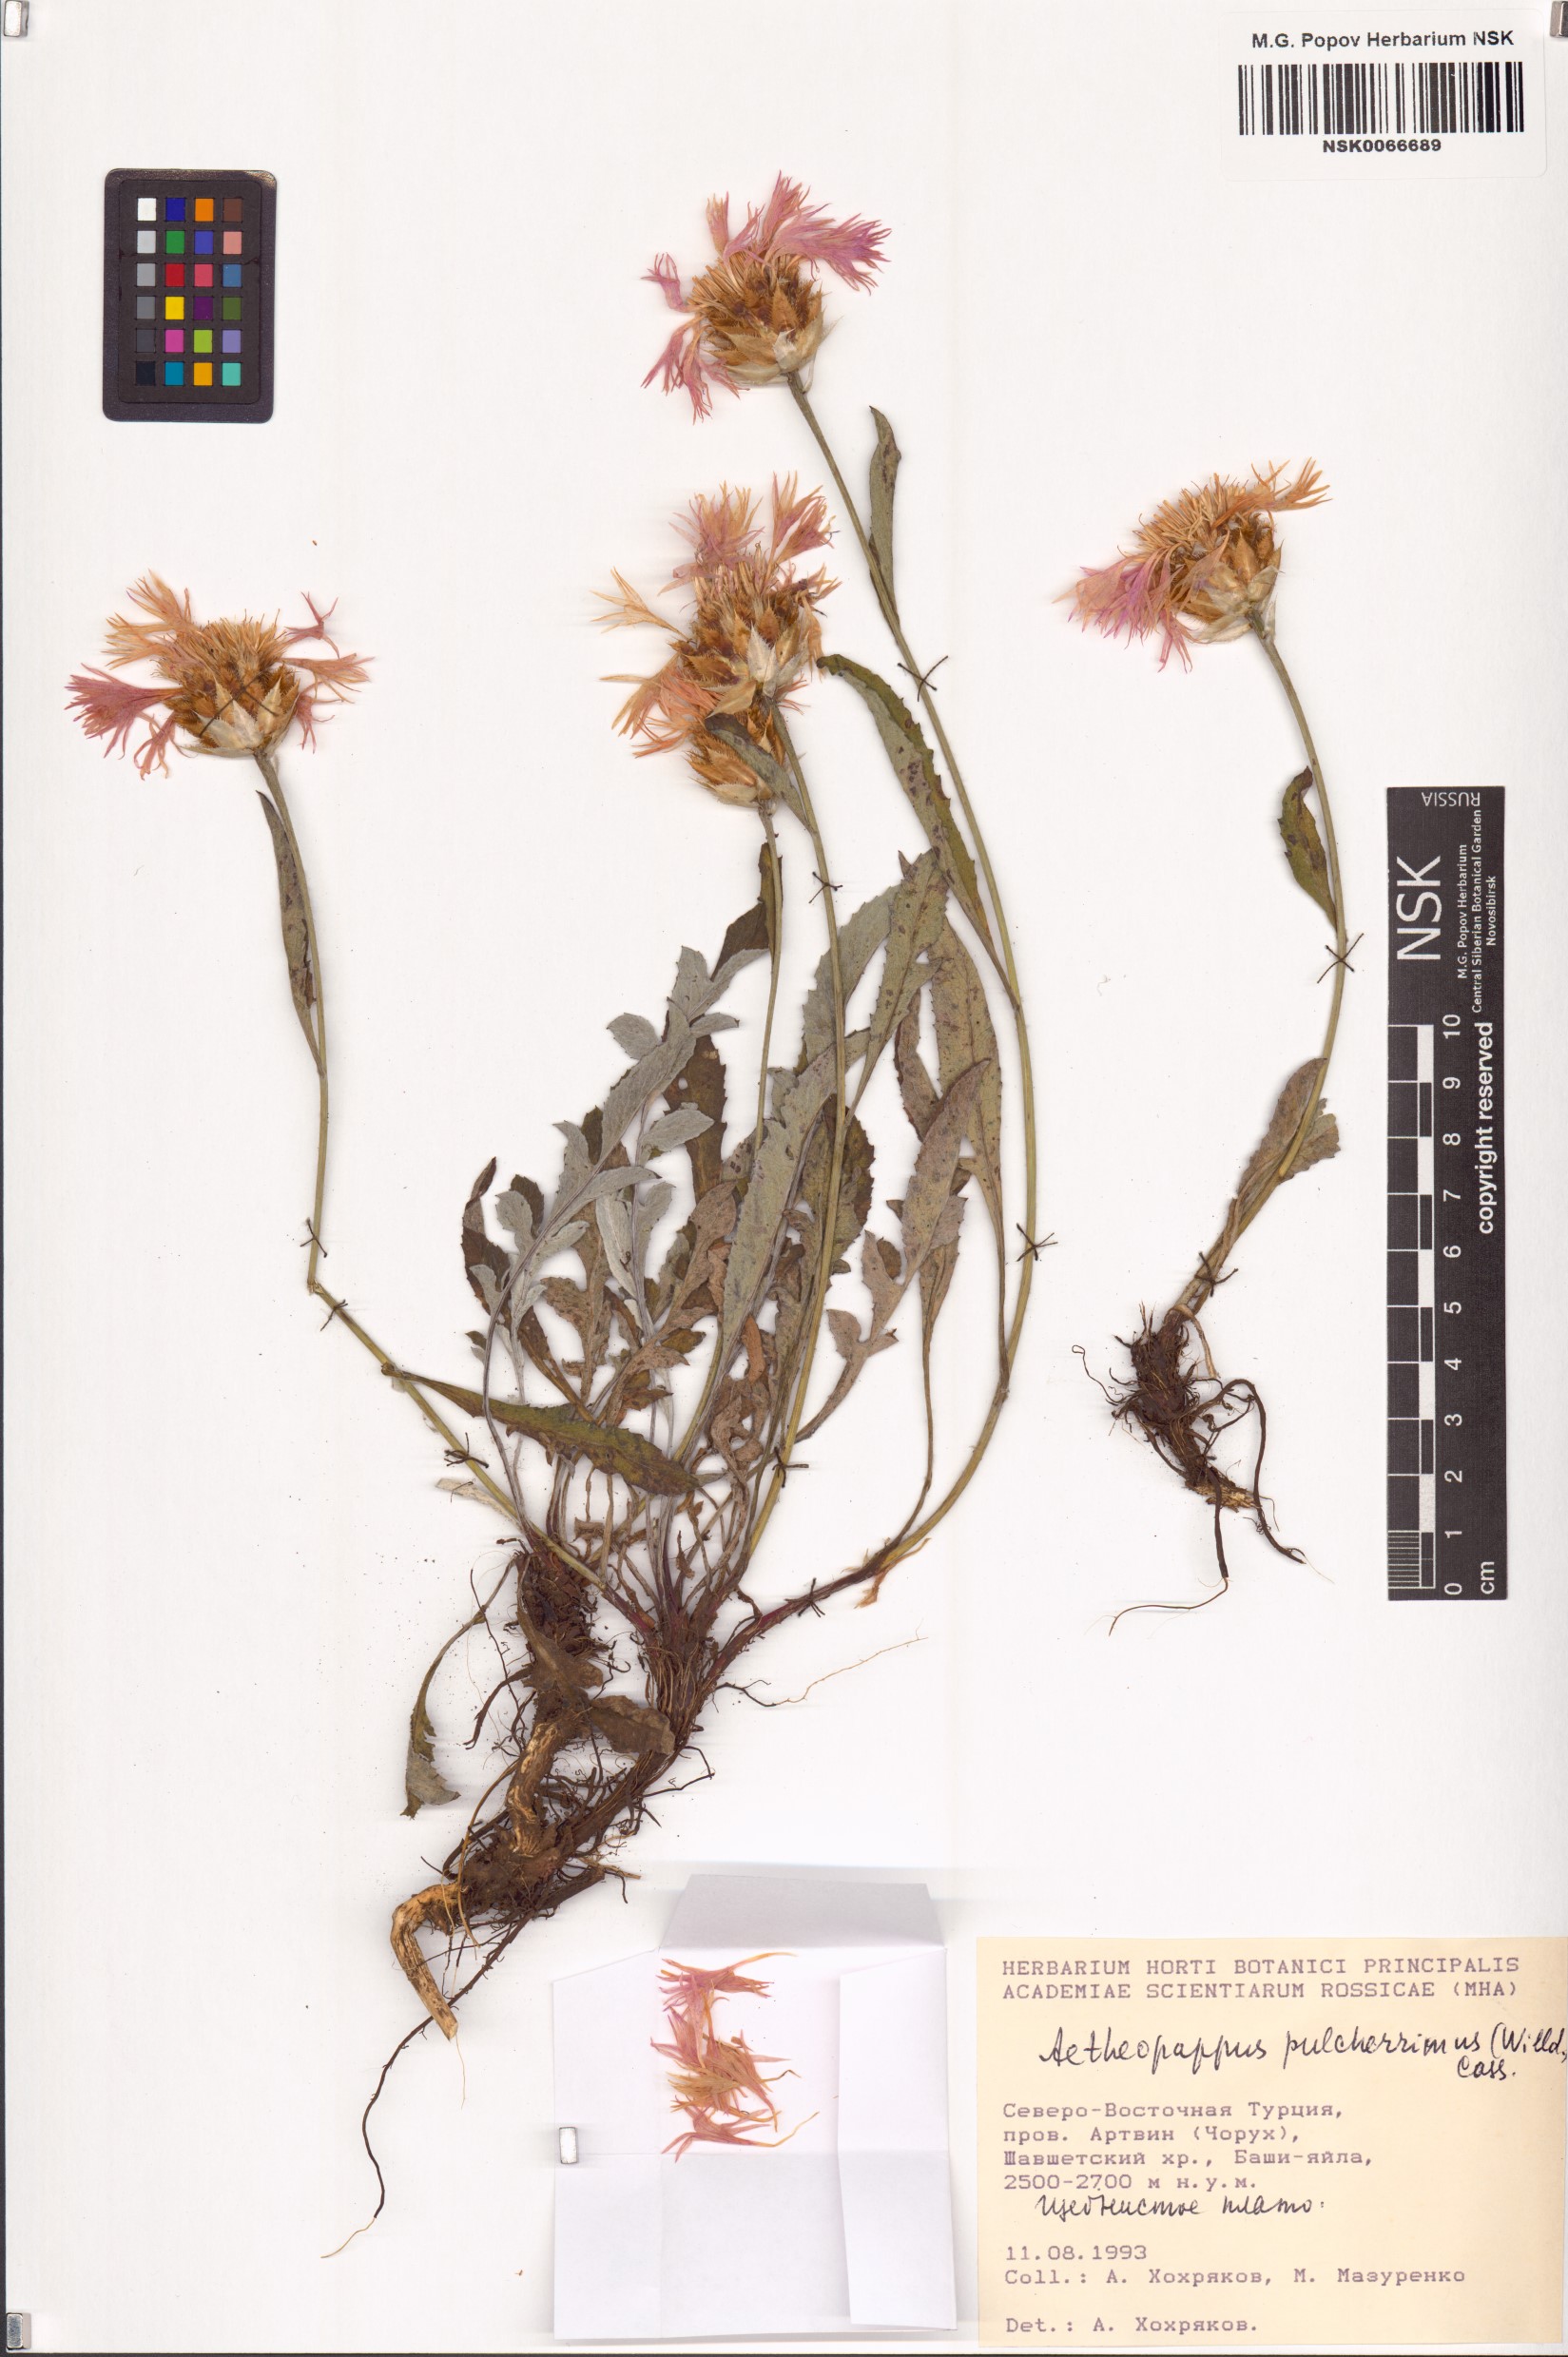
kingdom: Plantae
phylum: Tracheophyta
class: Magnoliopsida
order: Asterales
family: Asteraceae
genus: Psephellus
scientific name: Psephellus pulcherrimus
